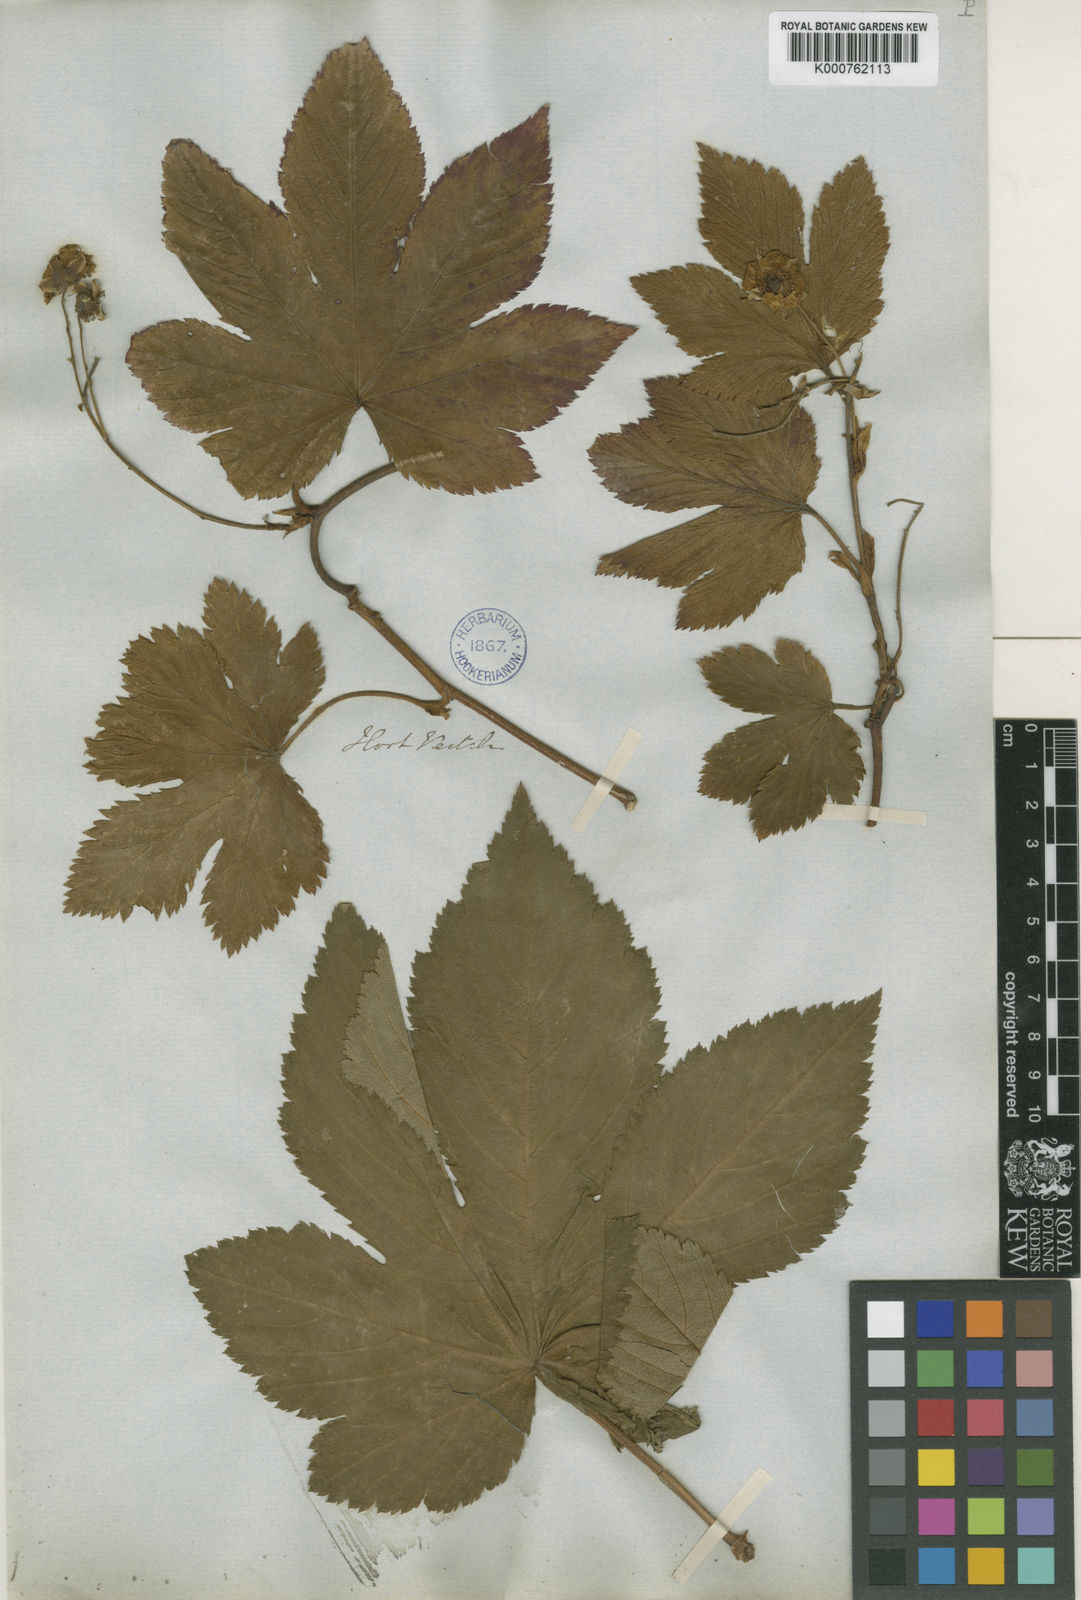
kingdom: Plantae
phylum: Tracheophyta
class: Magnoliopsida
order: Rosales
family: Rosaceae
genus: Rubus
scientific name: Rubus trifidus
